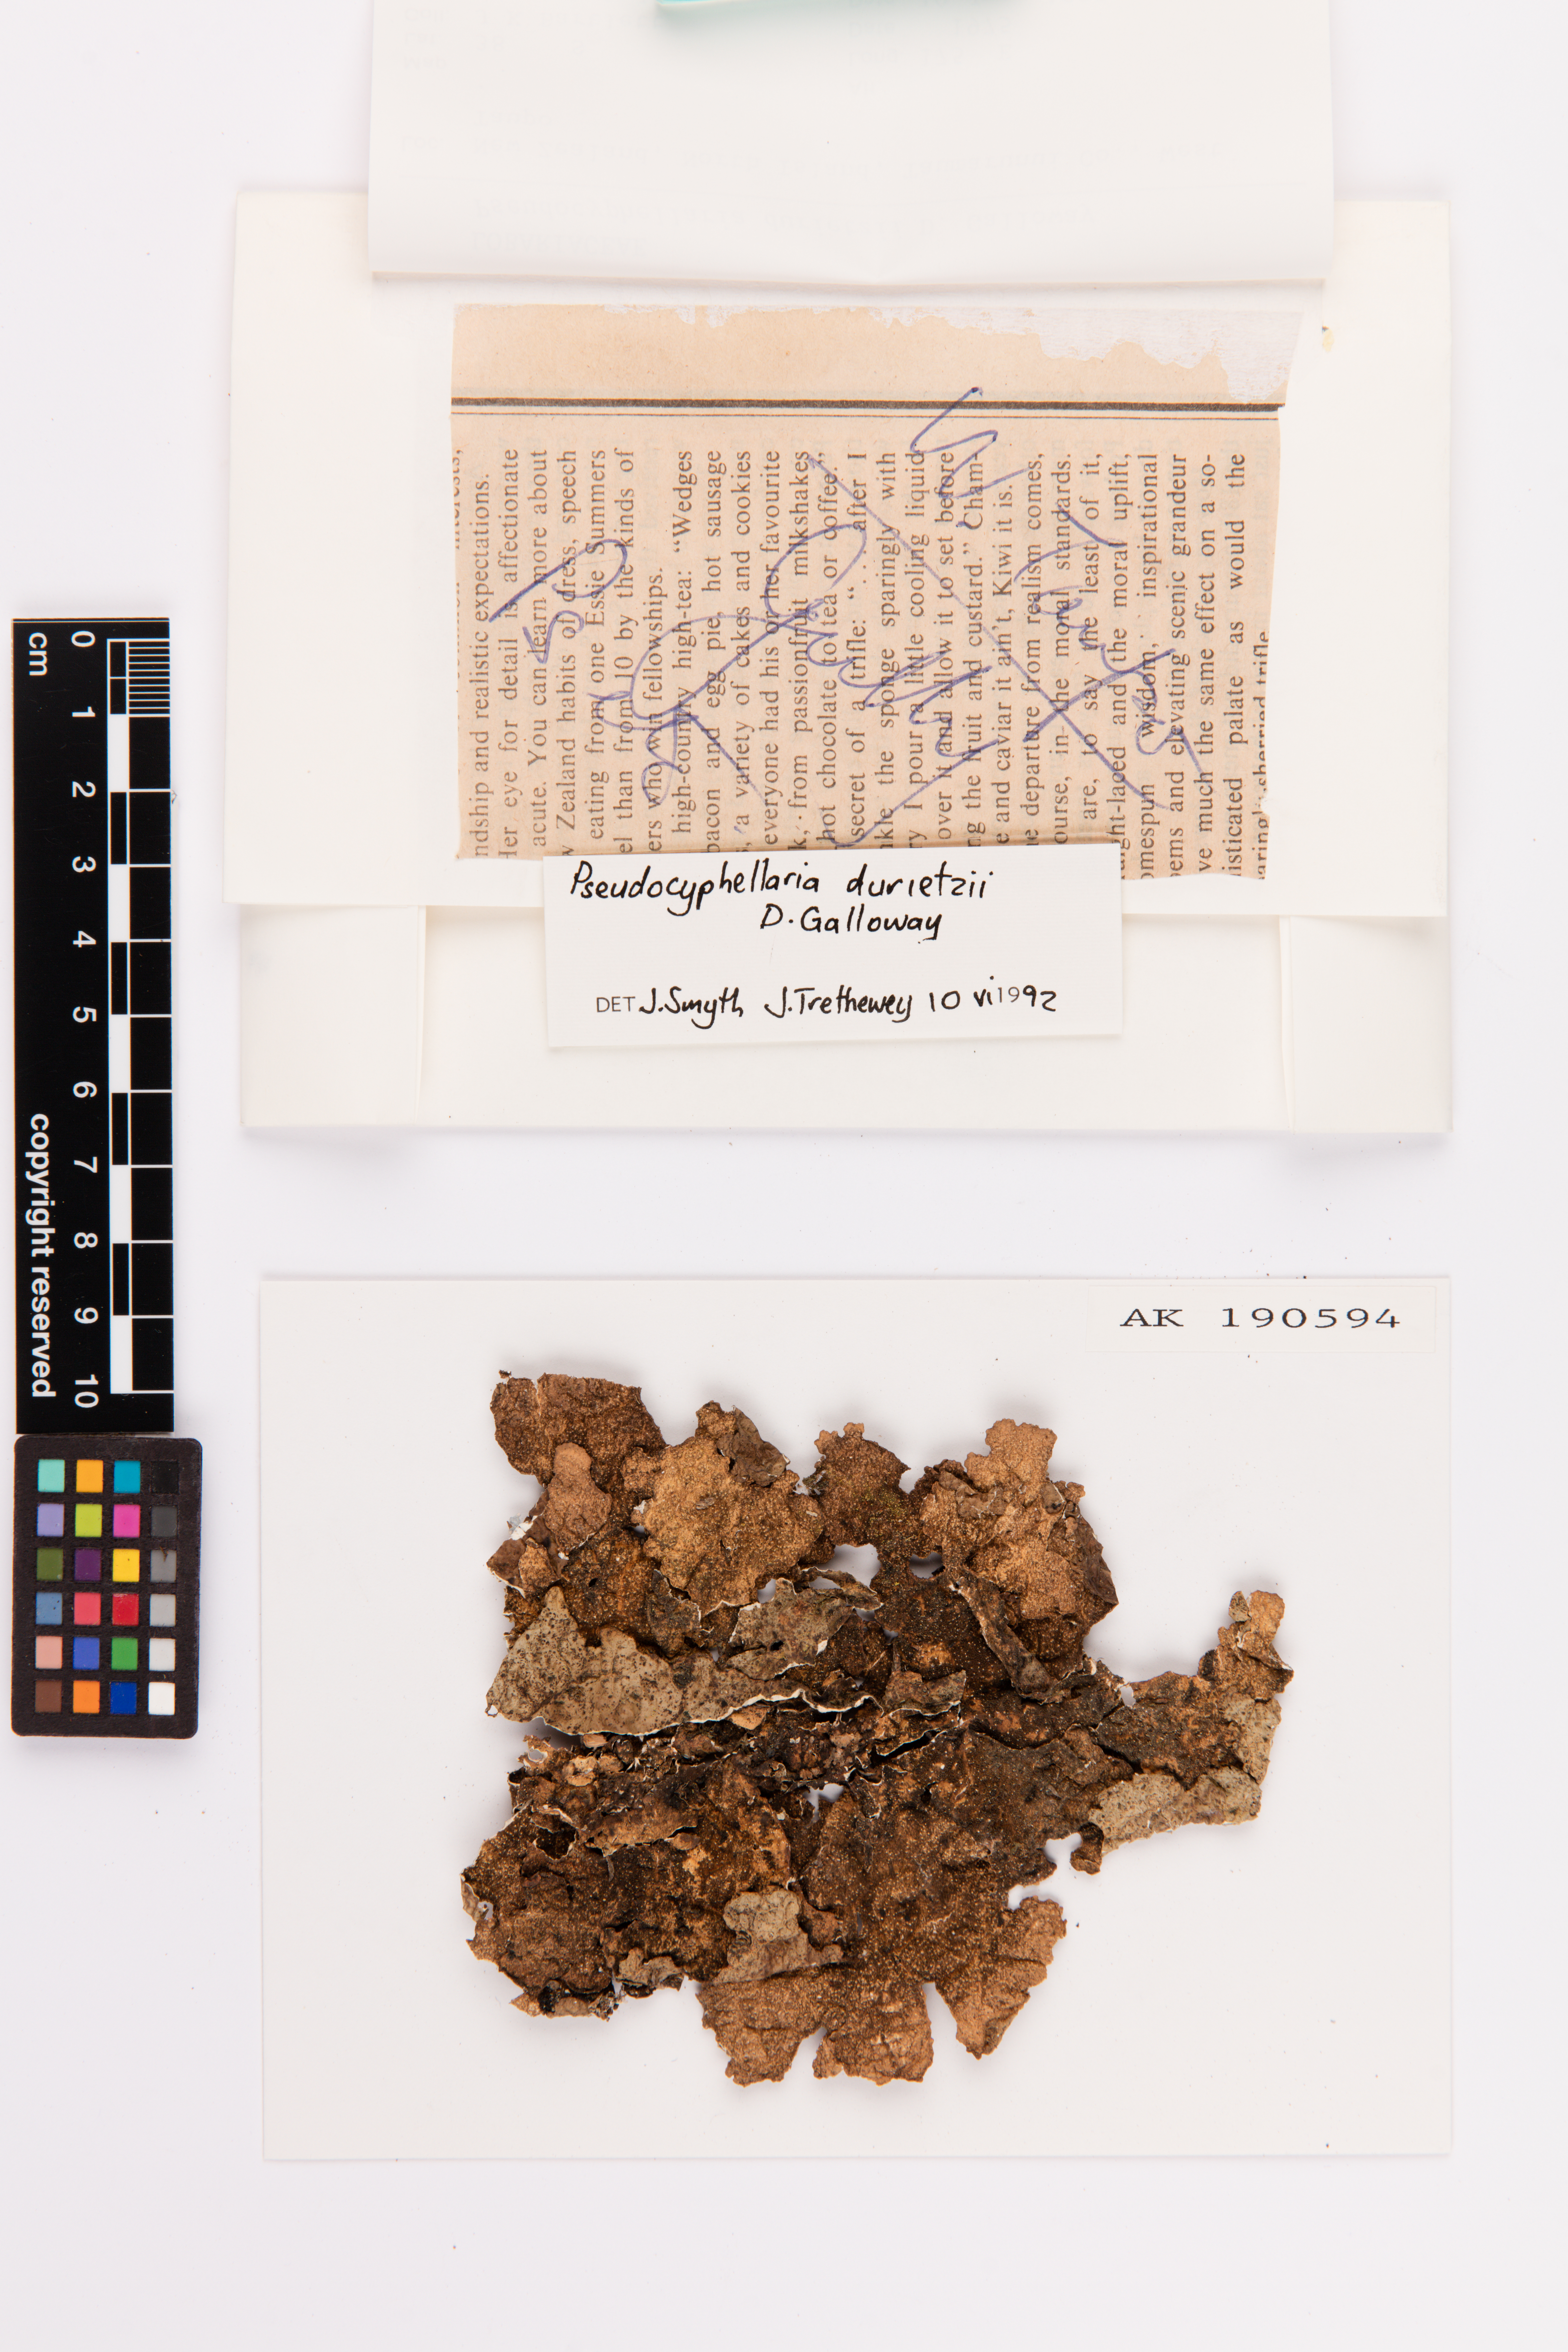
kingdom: Fungi
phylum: Ascomycota
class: Lecanoromycetes
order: Peltigerales
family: Lobariaceae
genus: Pseudocyphellaria
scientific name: Pseudocyphellaria durietzii
